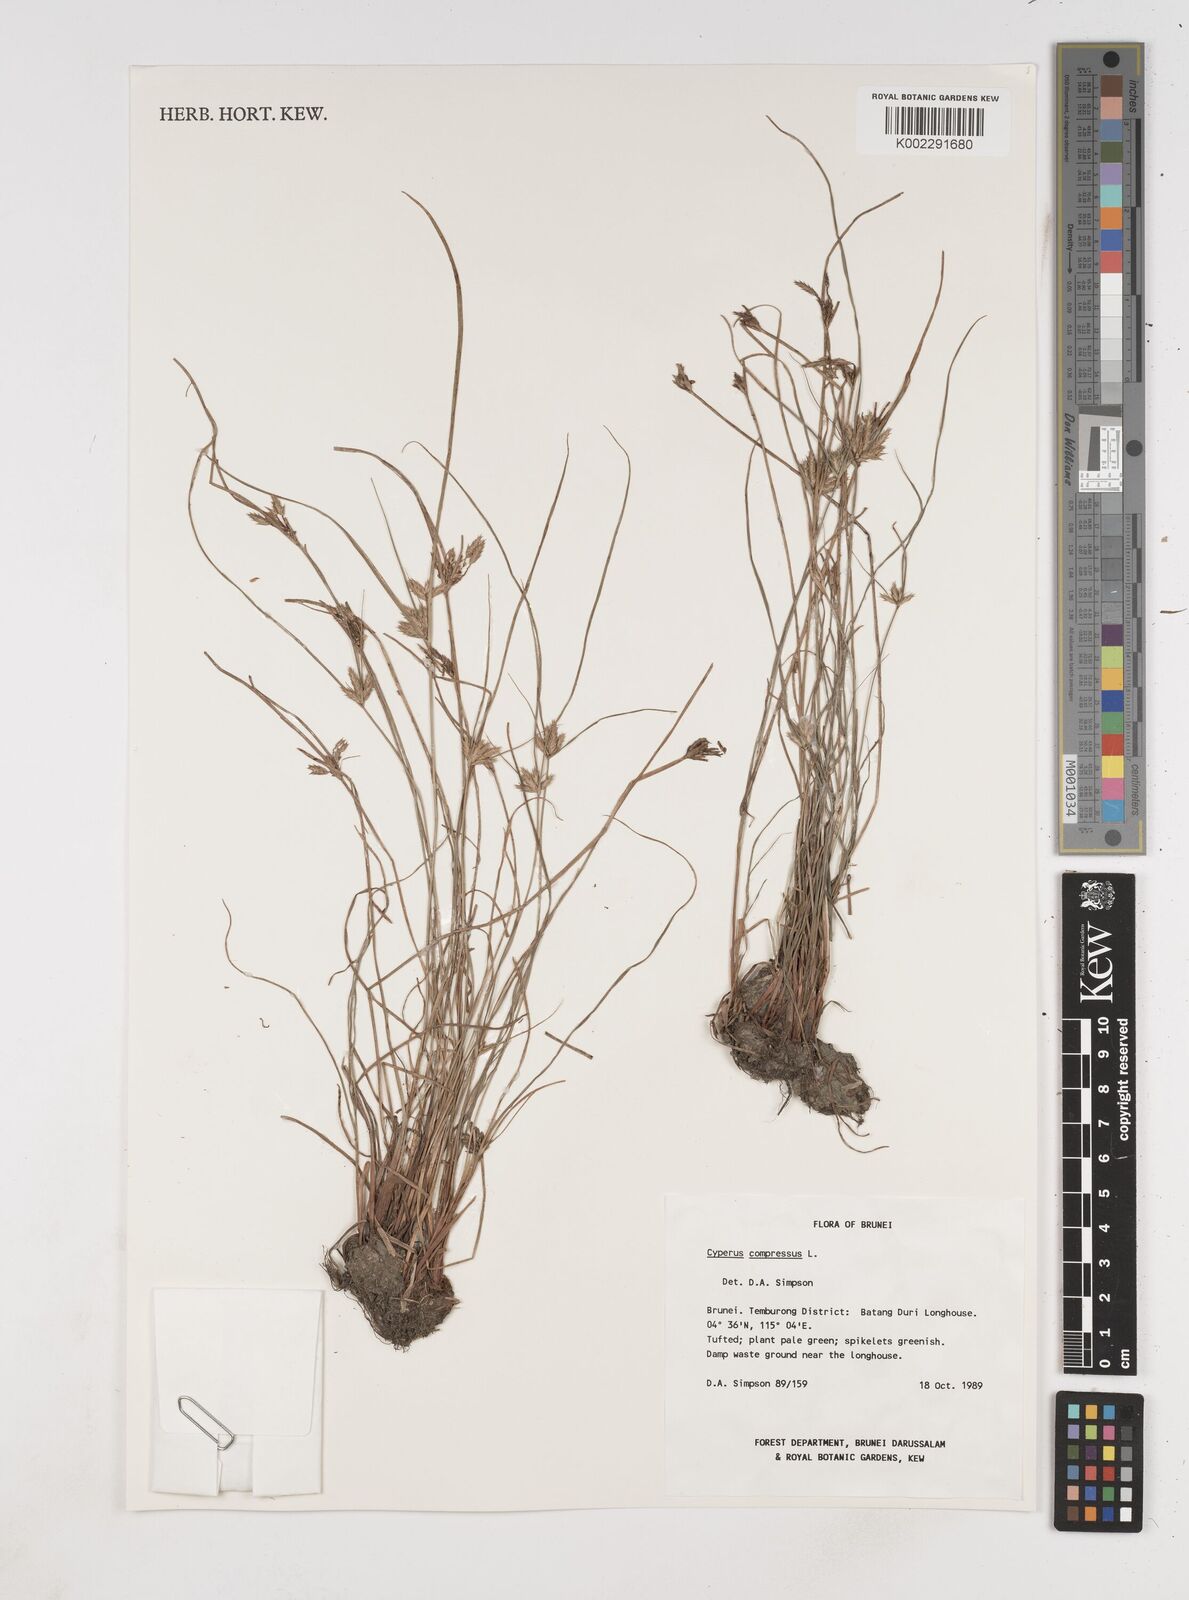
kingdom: Plantae
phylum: Tracheophyta
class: Liliopsida
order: Poales
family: Cyperaceae
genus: Cyperus
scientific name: Cyperus compressus
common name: Poorland flatsedge
